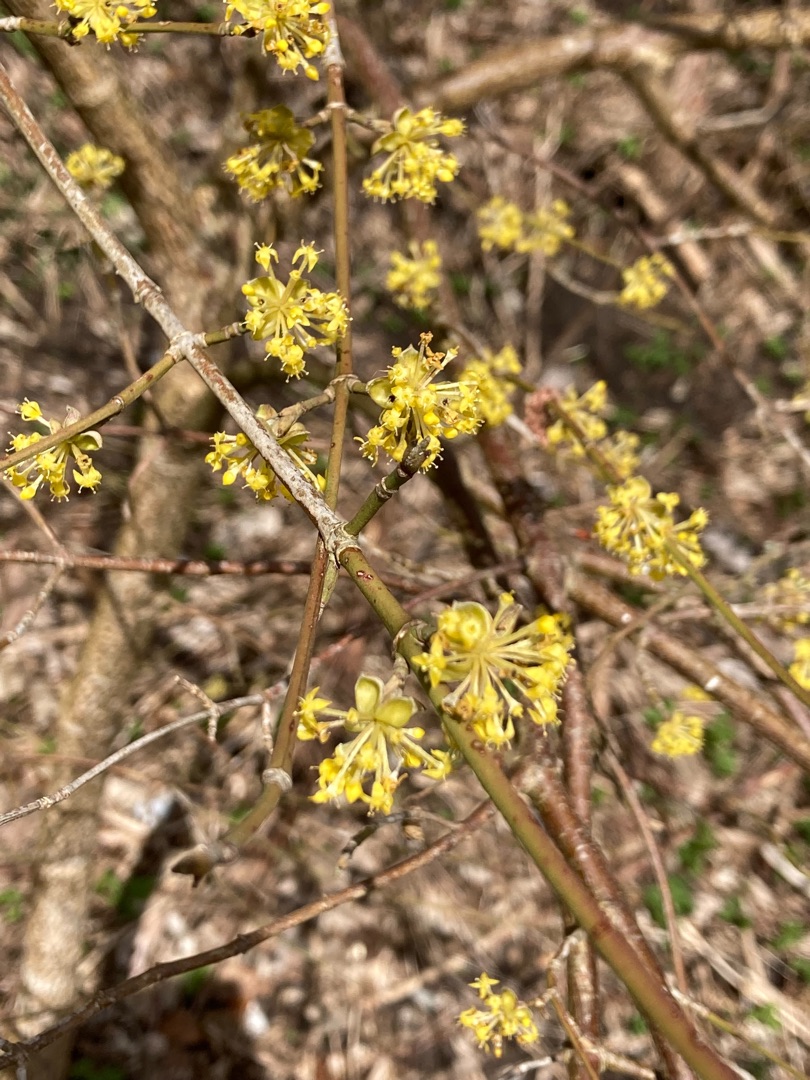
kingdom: Plantae
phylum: Tracheophyta
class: Magnoliopsida
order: Cornales
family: Cornaceae
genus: Cornus
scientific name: Cornus mas
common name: Kirsebær-kornel
